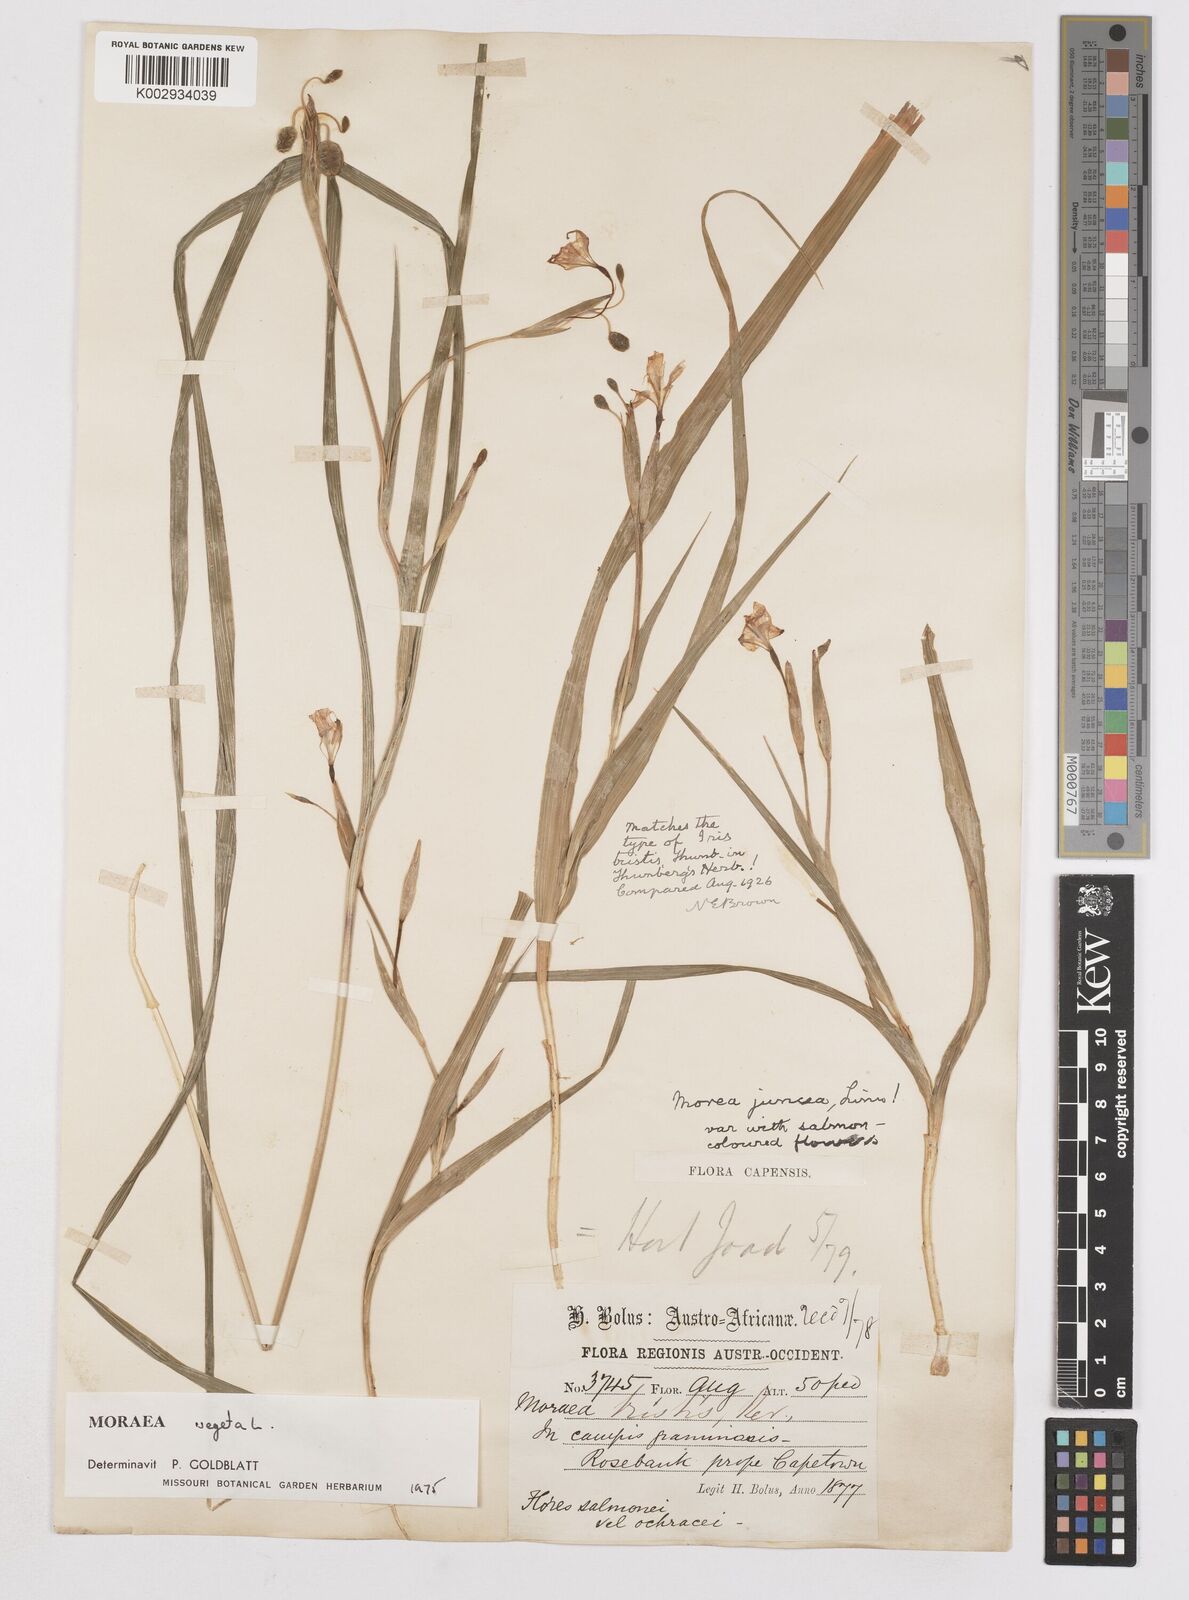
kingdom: Plantae
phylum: Tracheophyta
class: Liliopsida
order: Asparagales
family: Iridaceae
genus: Moraea
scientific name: Moraea vegeta
